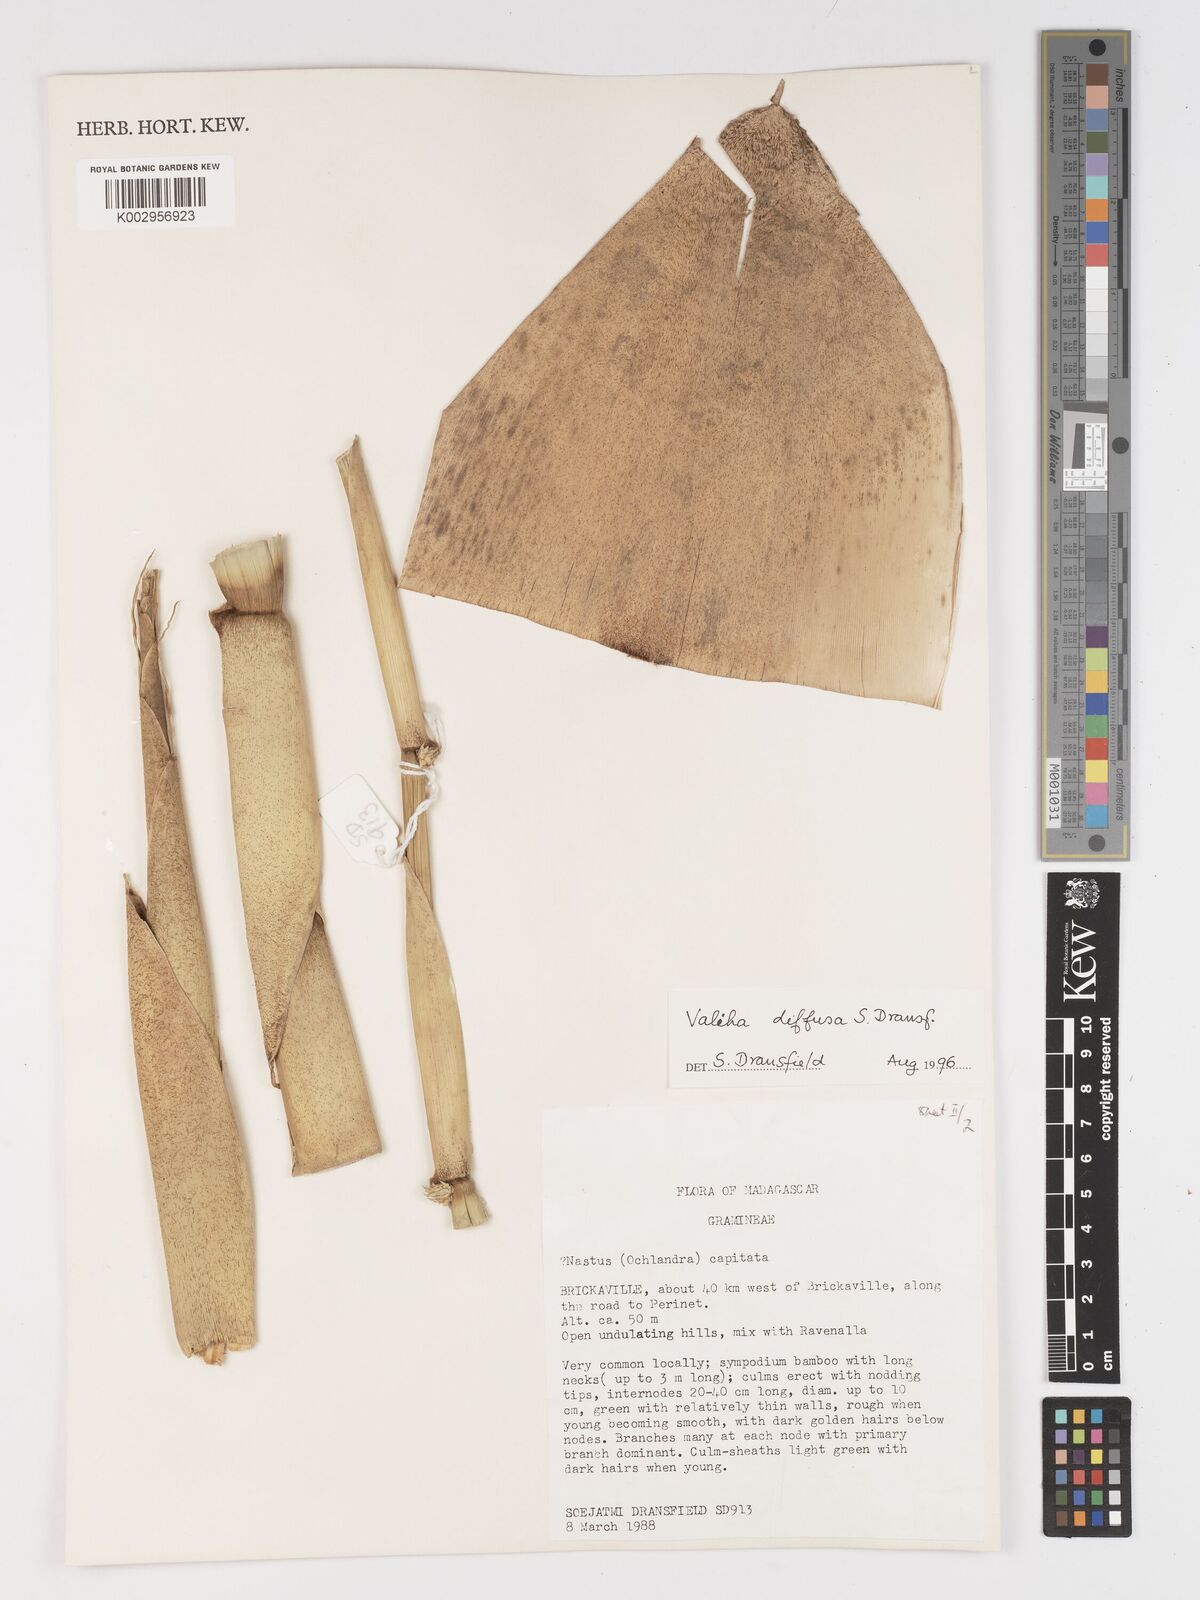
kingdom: Plantae
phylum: Tracheophyta
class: Liliopsida
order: Poales
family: Poaceae
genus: Valiha
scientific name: Valiha
